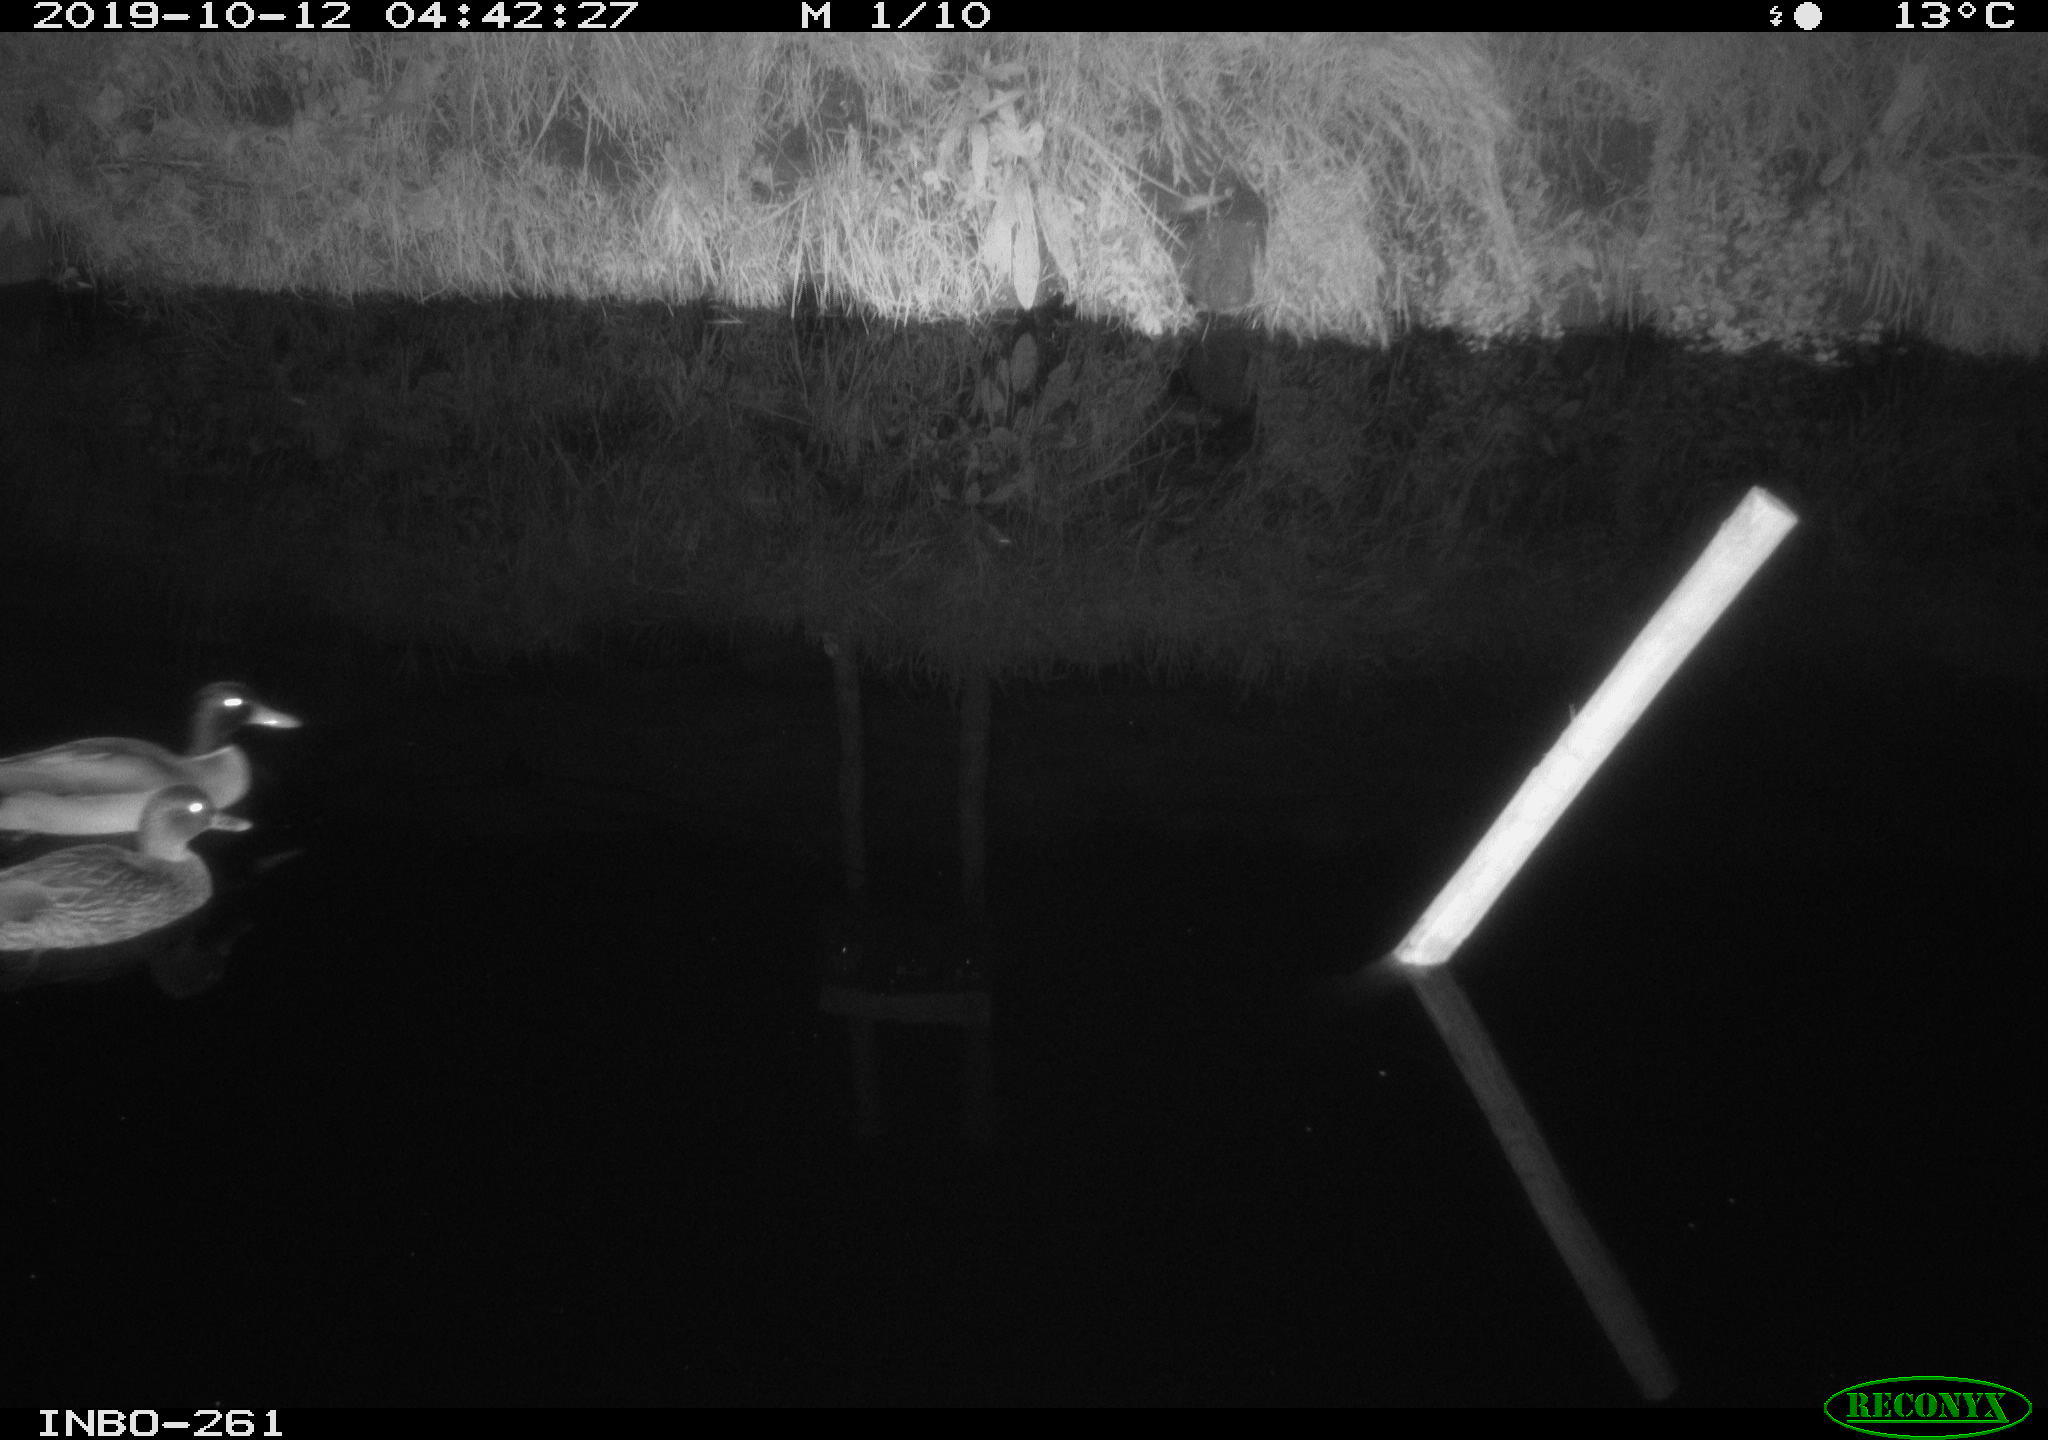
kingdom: Animalia
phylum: Chordata
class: Aves
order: Anseriformes
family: Anatidae
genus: Anas
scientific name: Anas platyrhynchos
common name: Mallard
